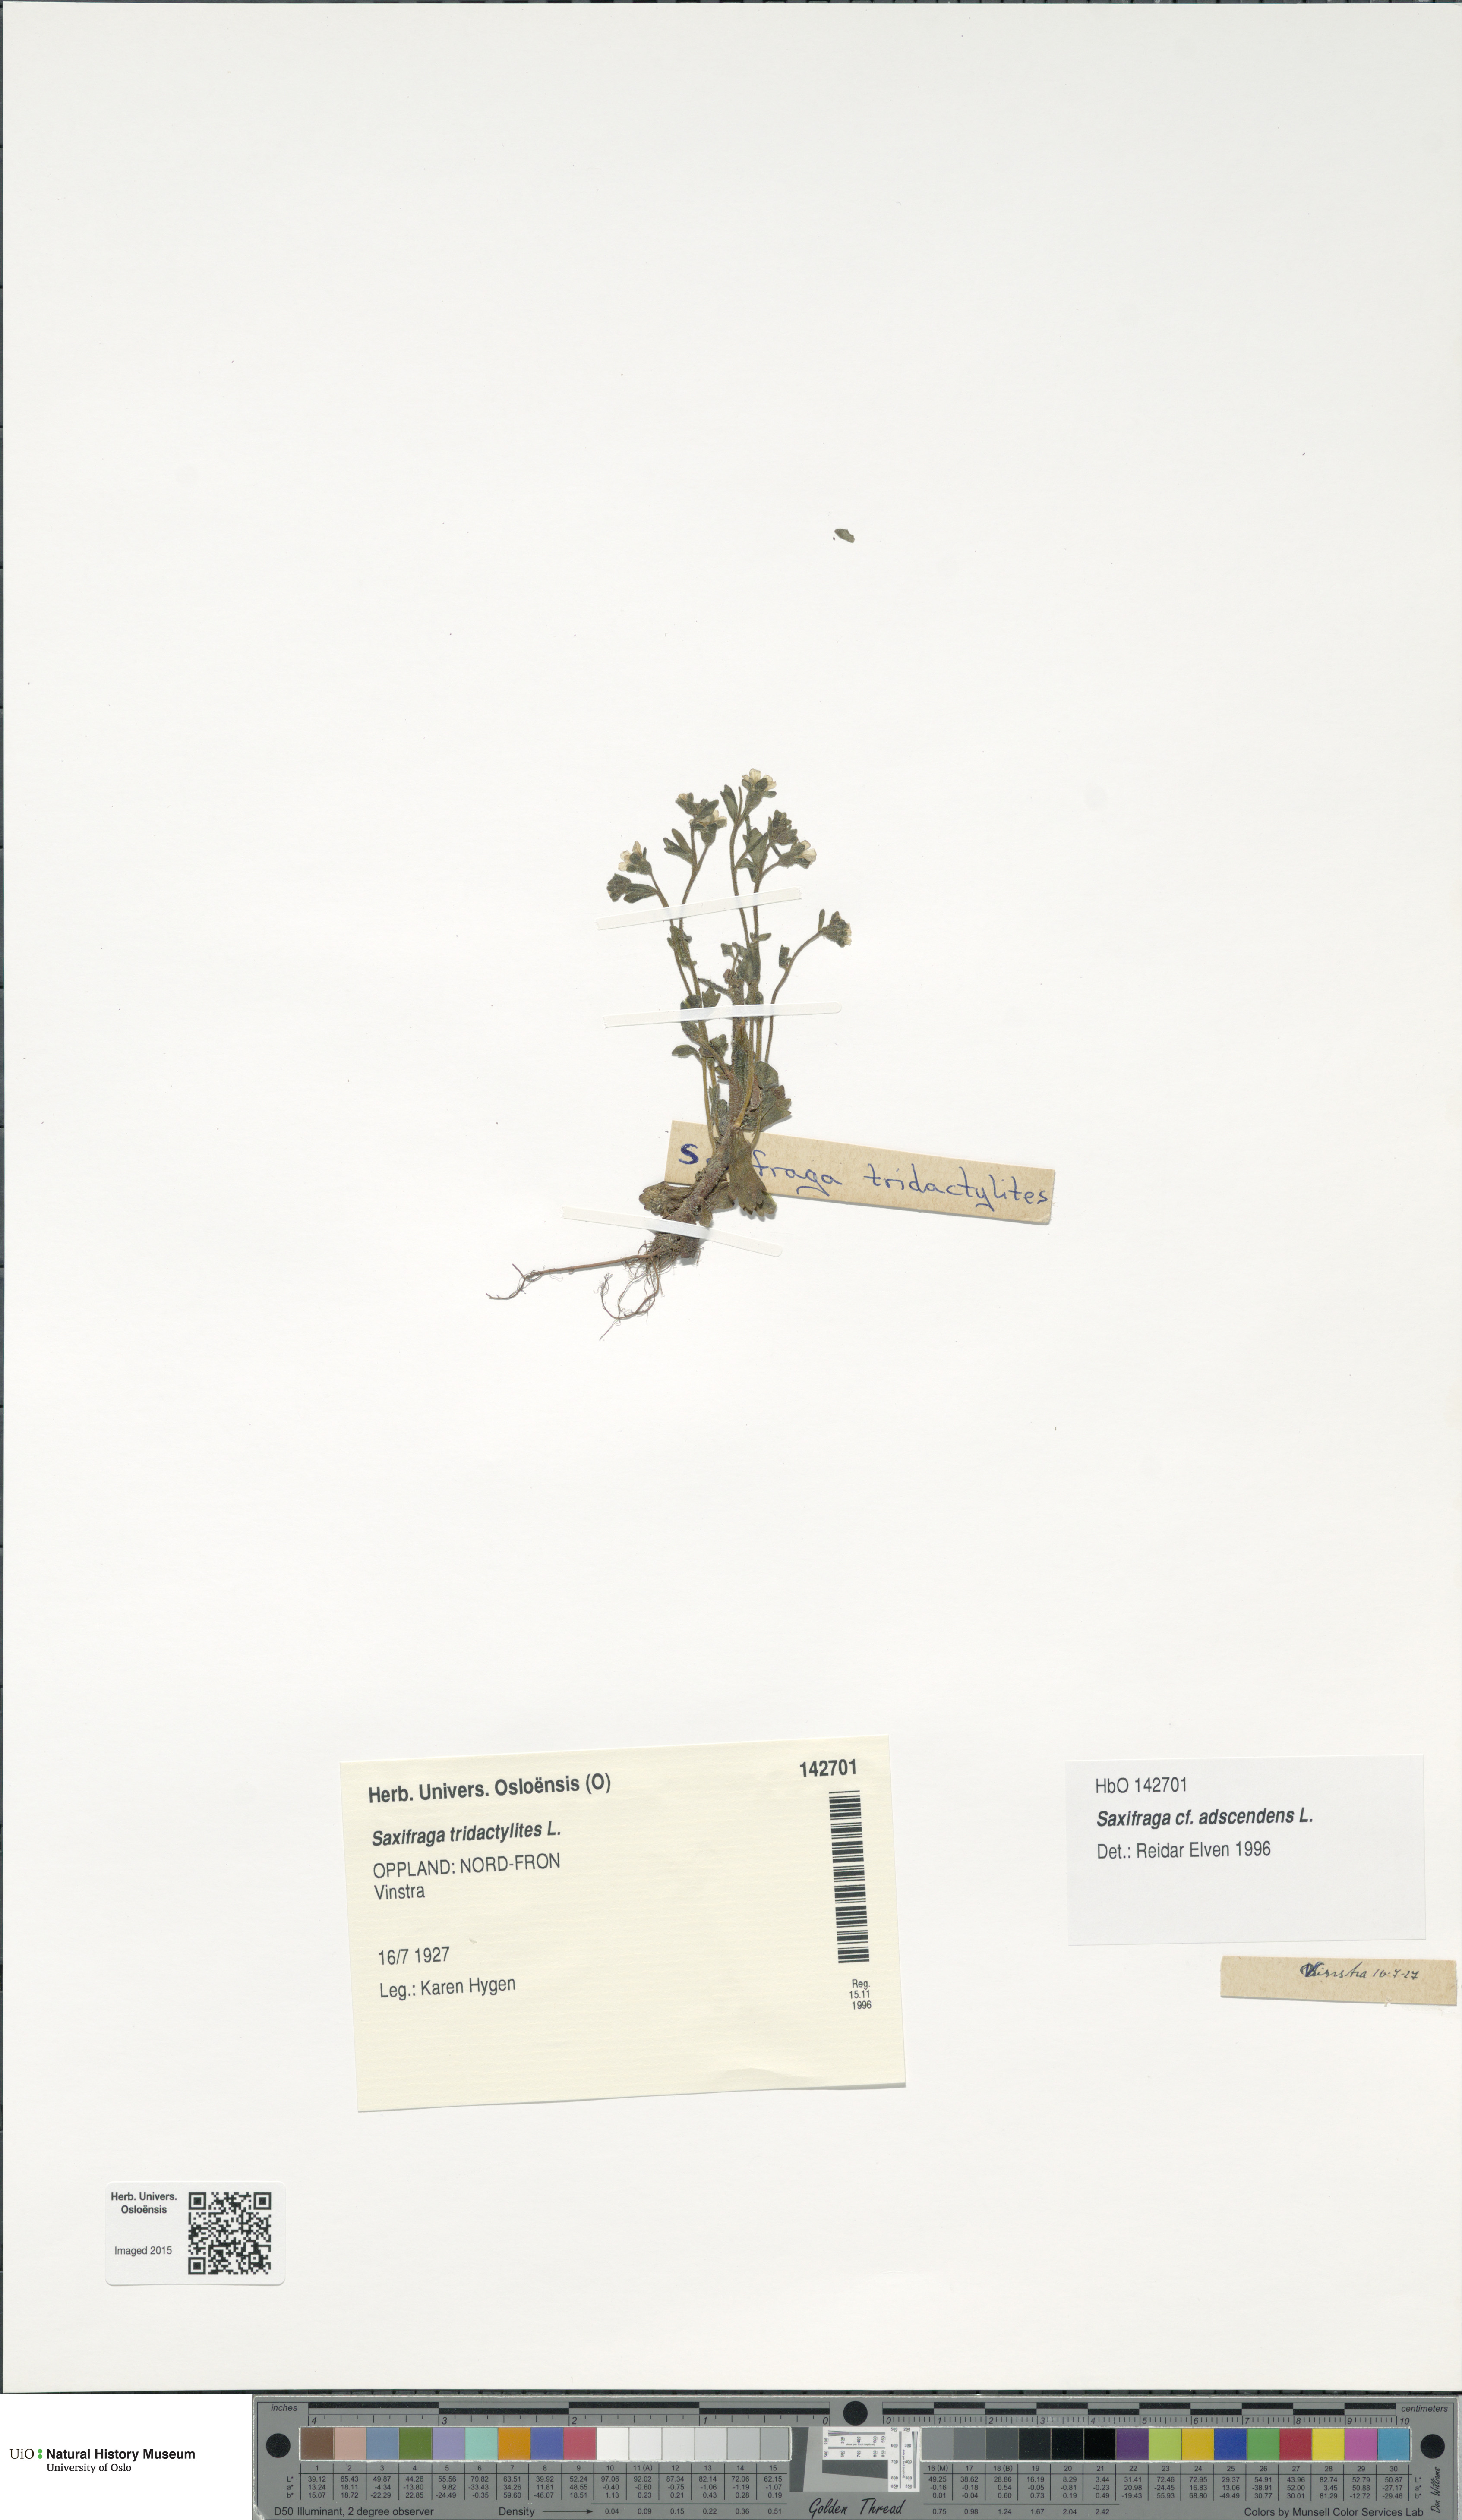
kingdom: Plantae
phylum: Tracheophyta
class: Magnoliopsida
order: Saxifragales
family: Saxifragaceae
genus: Saxifraga
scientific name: Saxifraga adscendens
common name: Ascending saxifrage
